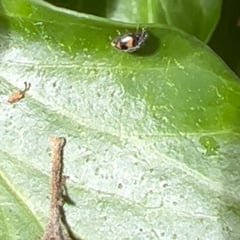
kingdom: Animalia
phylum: Arthropoda
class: Insecta
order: Coleoptera
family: Coccinellidae
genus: Nephus
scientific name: Nephus quadrimaculatus
